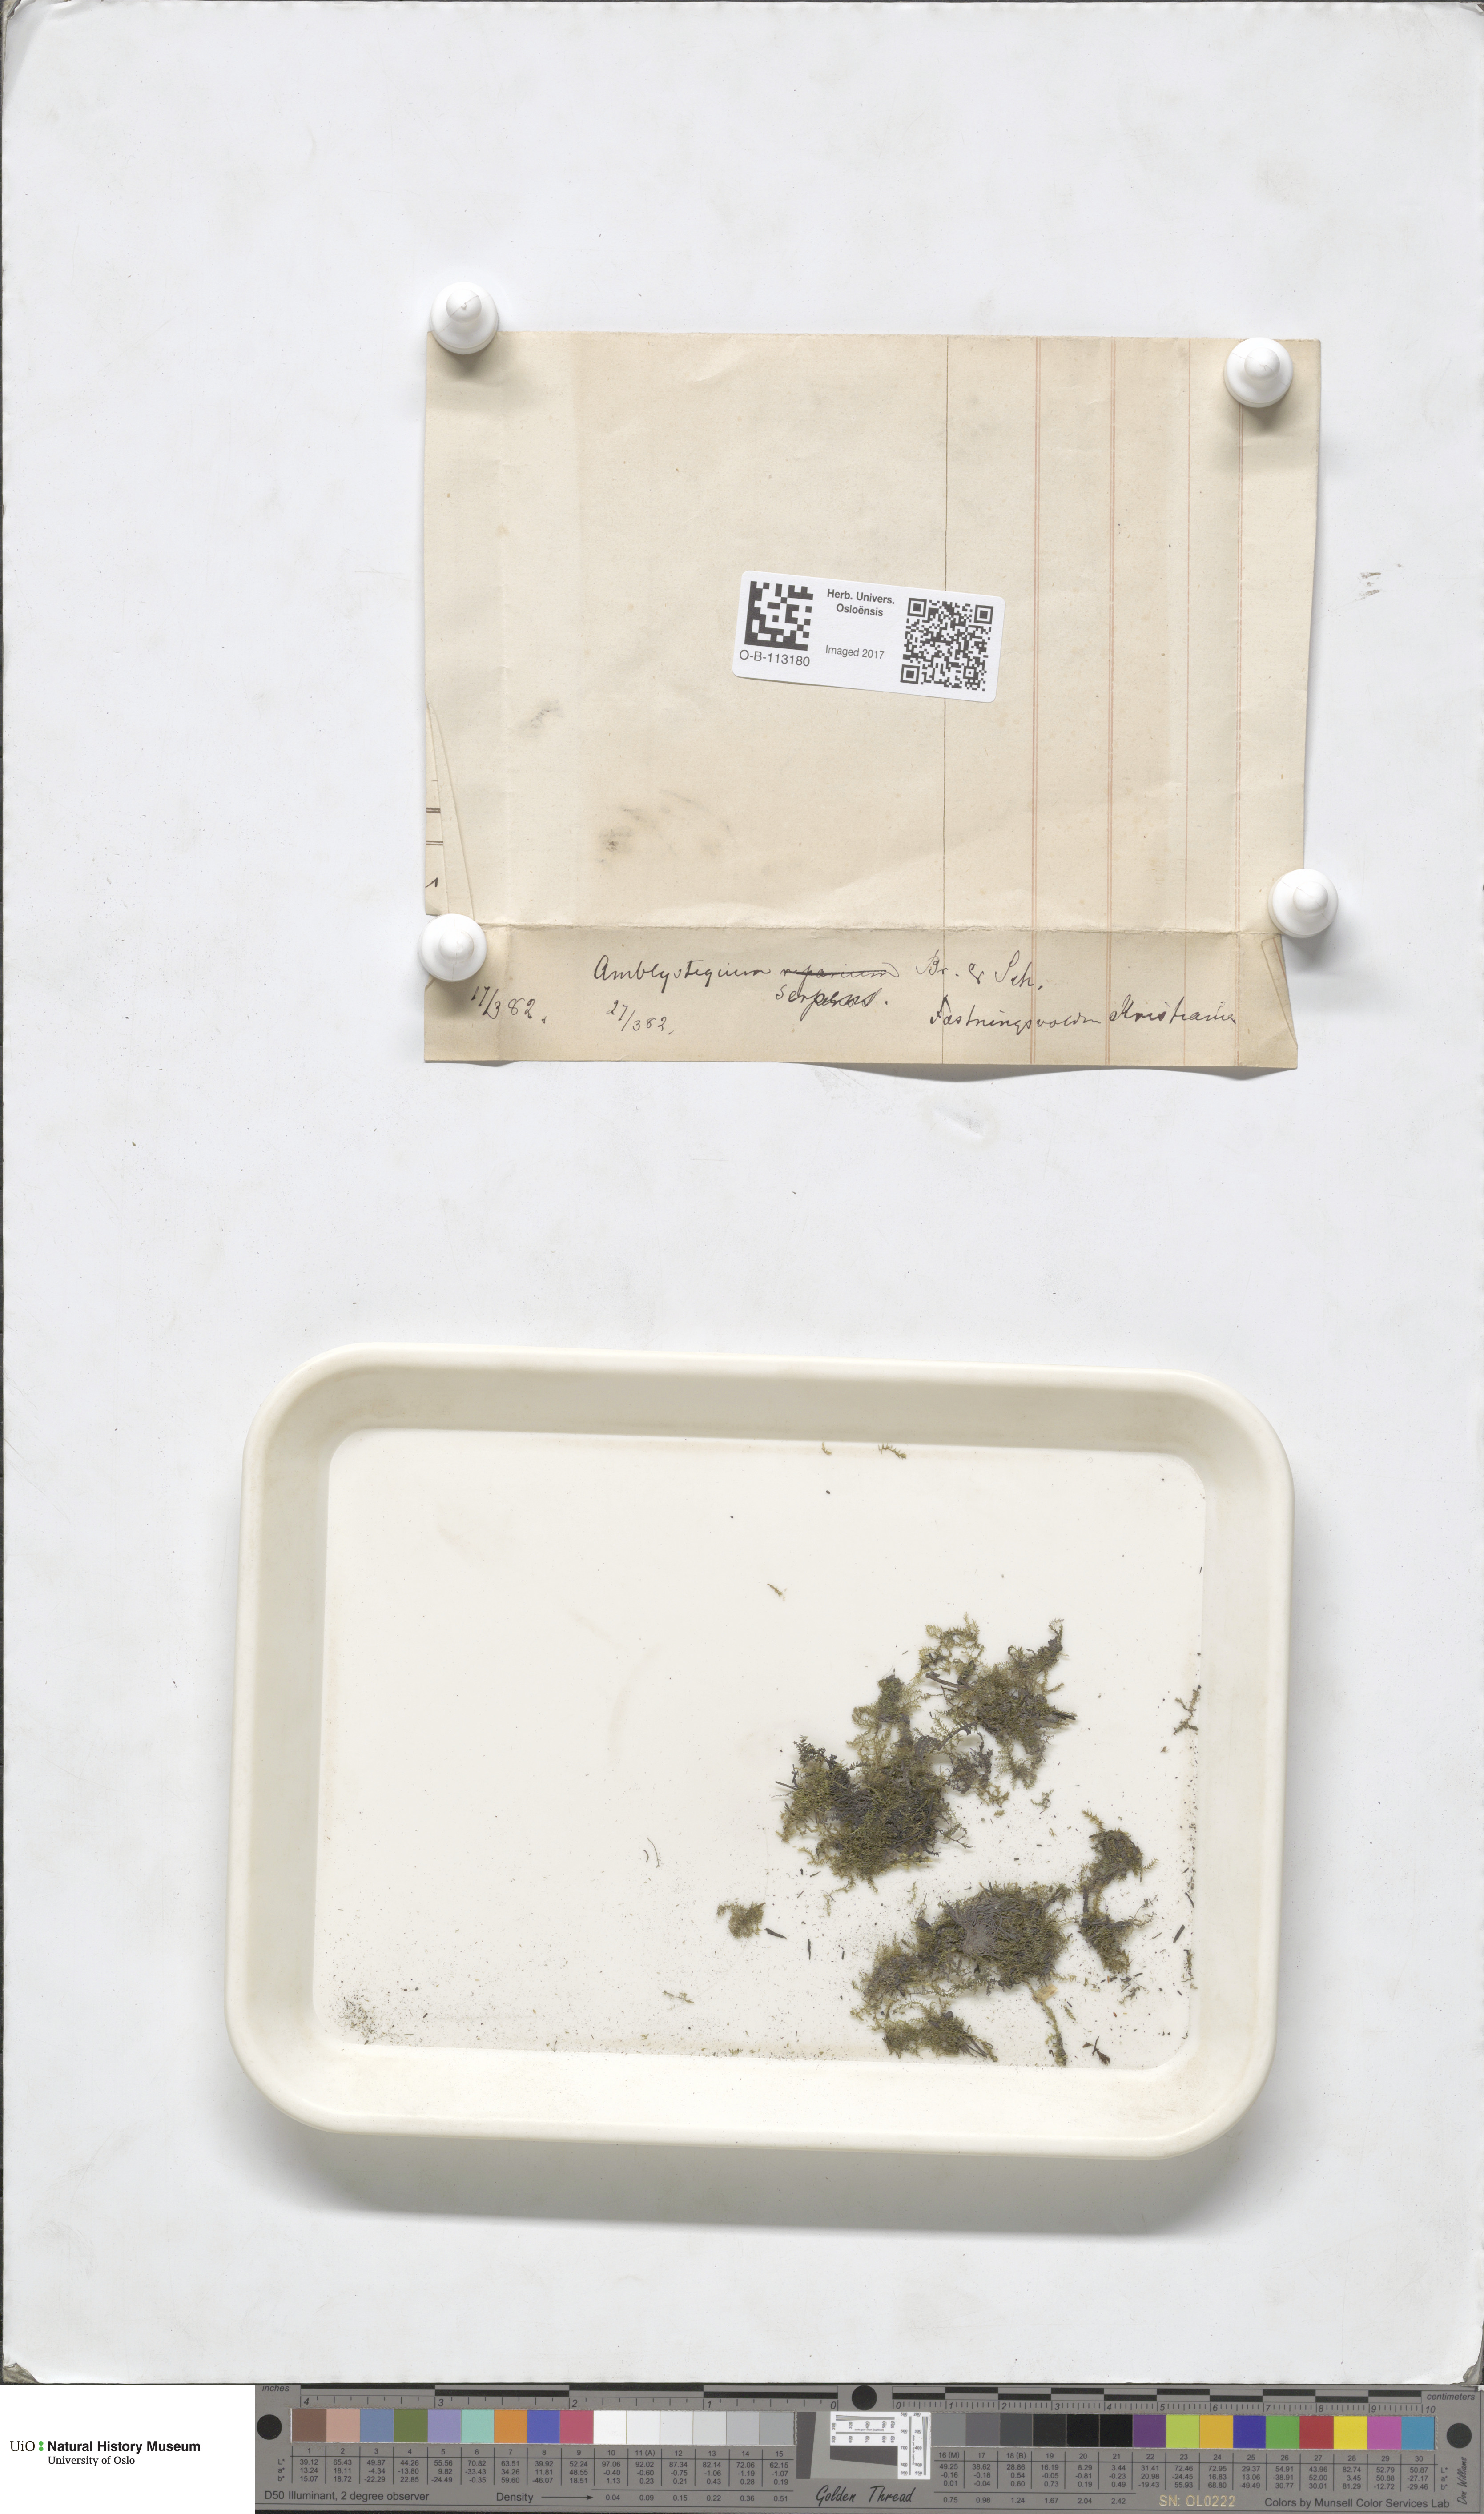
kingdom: Plantae
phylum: Bryophyta
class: Bryopsida
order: Hypnales
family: Amblystegiaceae
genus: Amblystegium
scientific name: Amblystegium serpens
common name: Jurkatzka's feather moss
